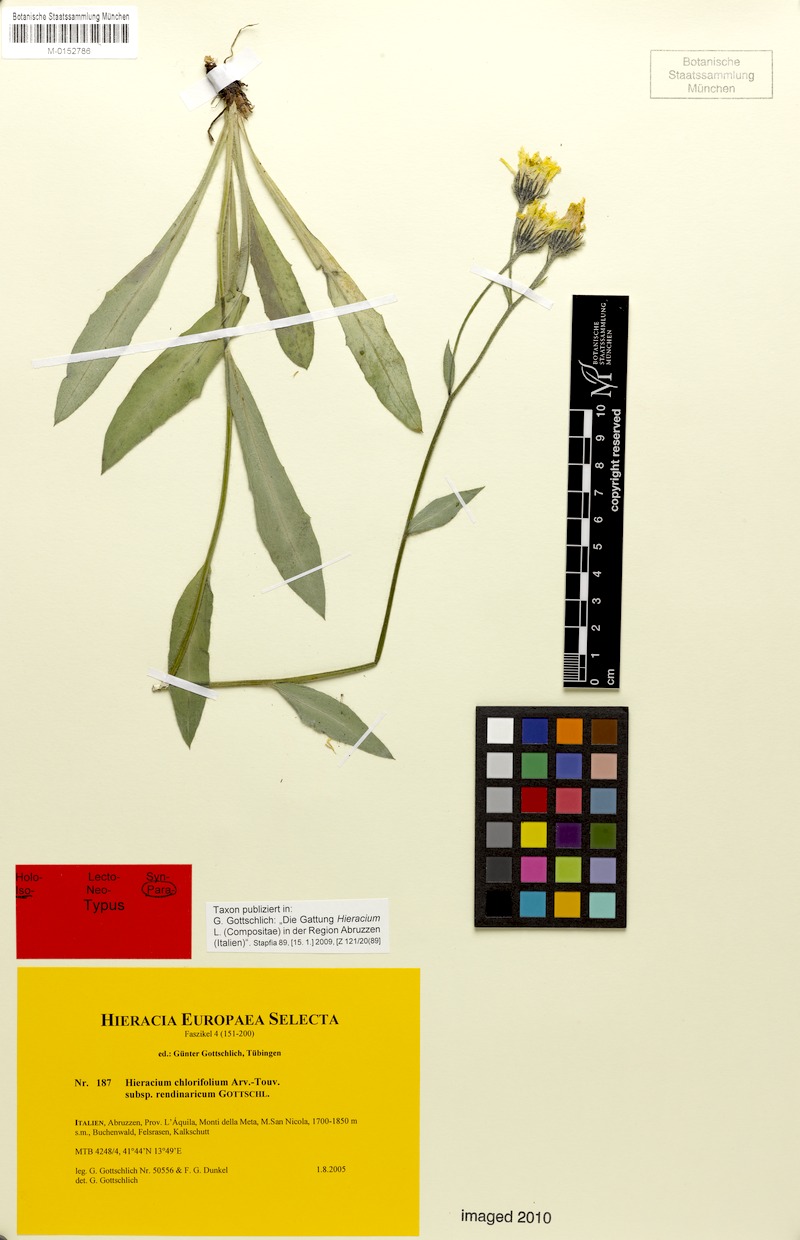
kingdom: Plantae
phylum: Tracheophyta
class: Magnoliopsida
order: Asterales
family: Asteraceae
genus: Hieracium
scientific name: Hieracium chlorifolium
